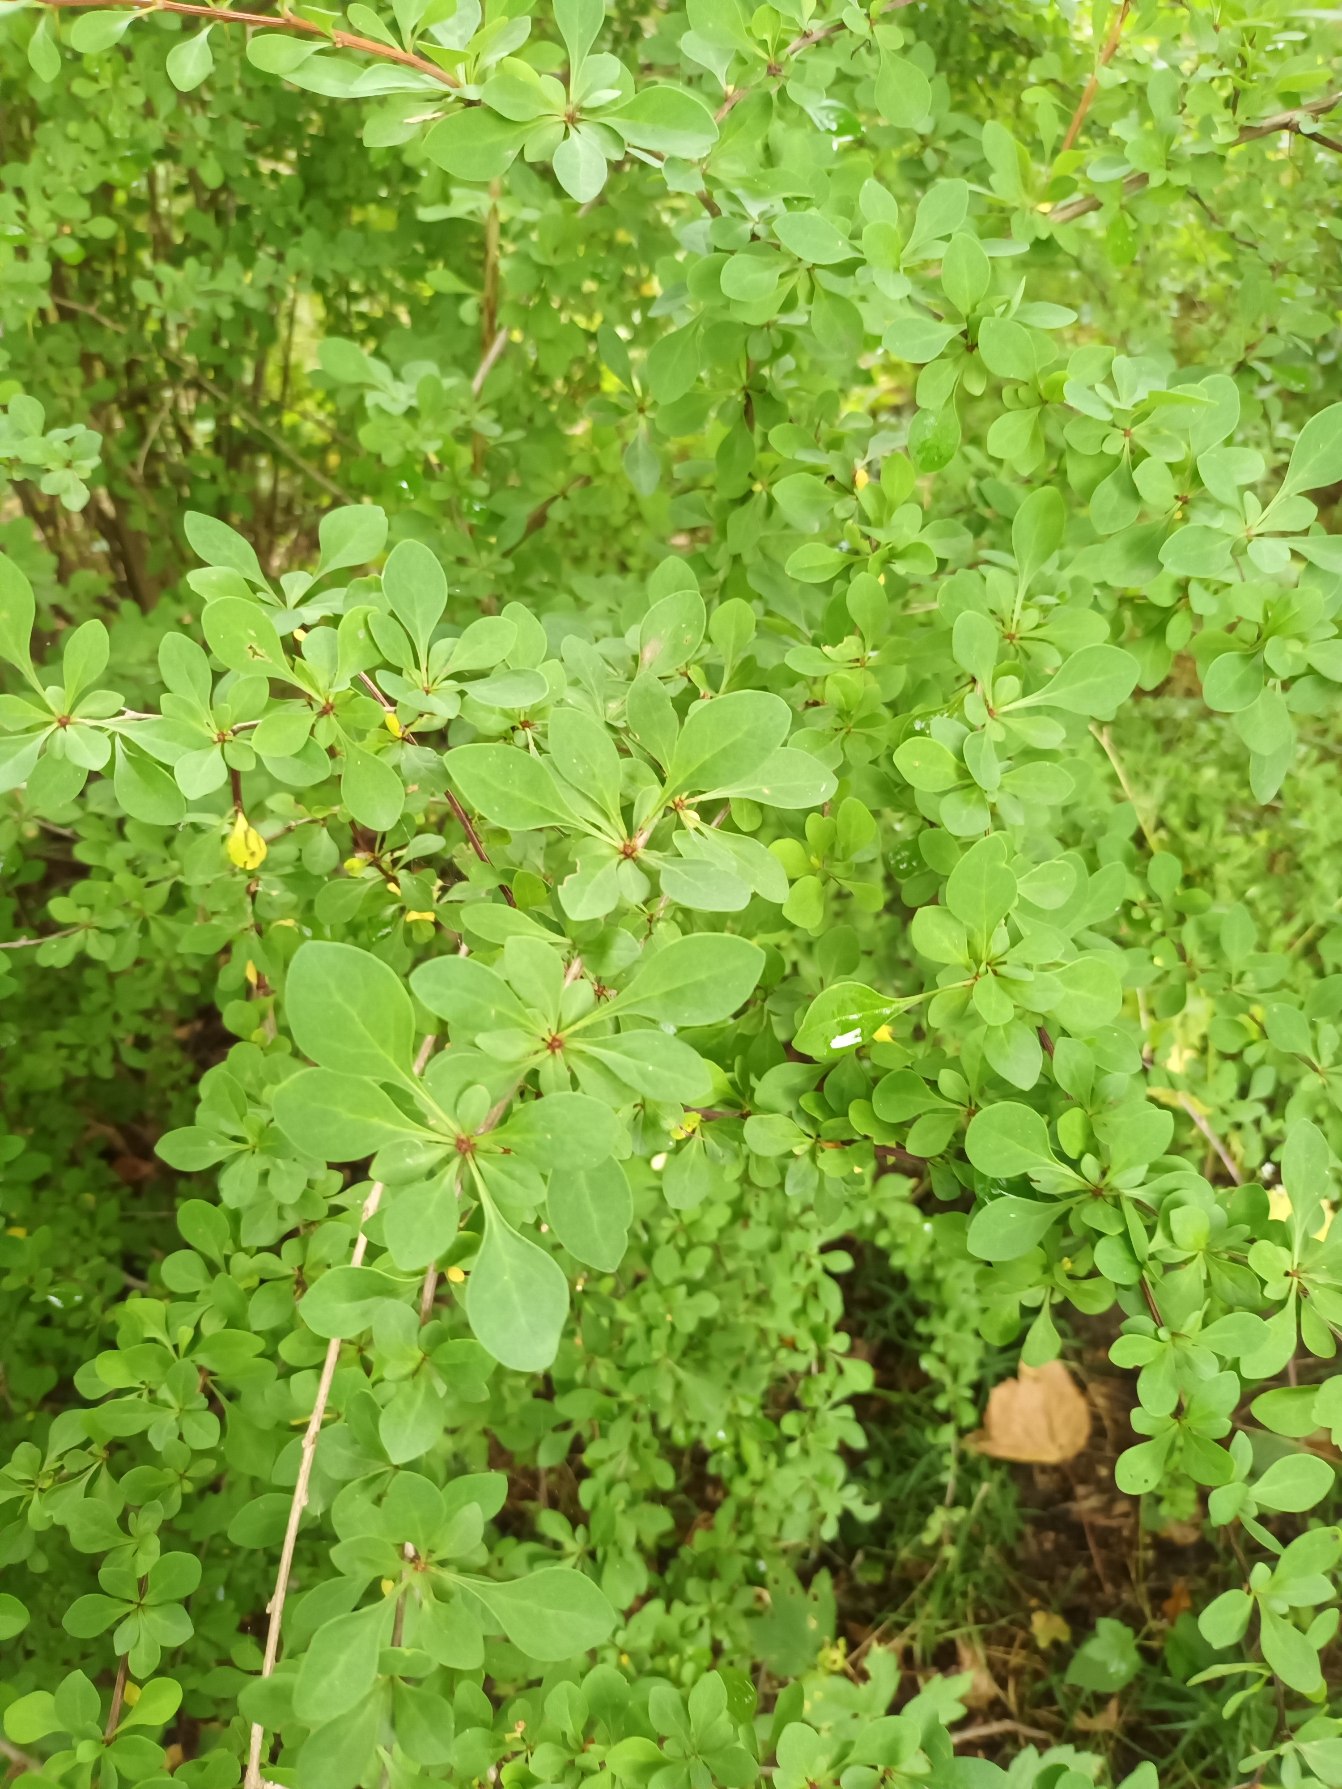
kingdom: Plantae
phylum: Tracheophyta
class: Magnoliopsida
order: Ranunculales
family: Berberidaceae
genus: Berberis
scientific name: Berberis thunbergii
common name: Hæk-berberis
